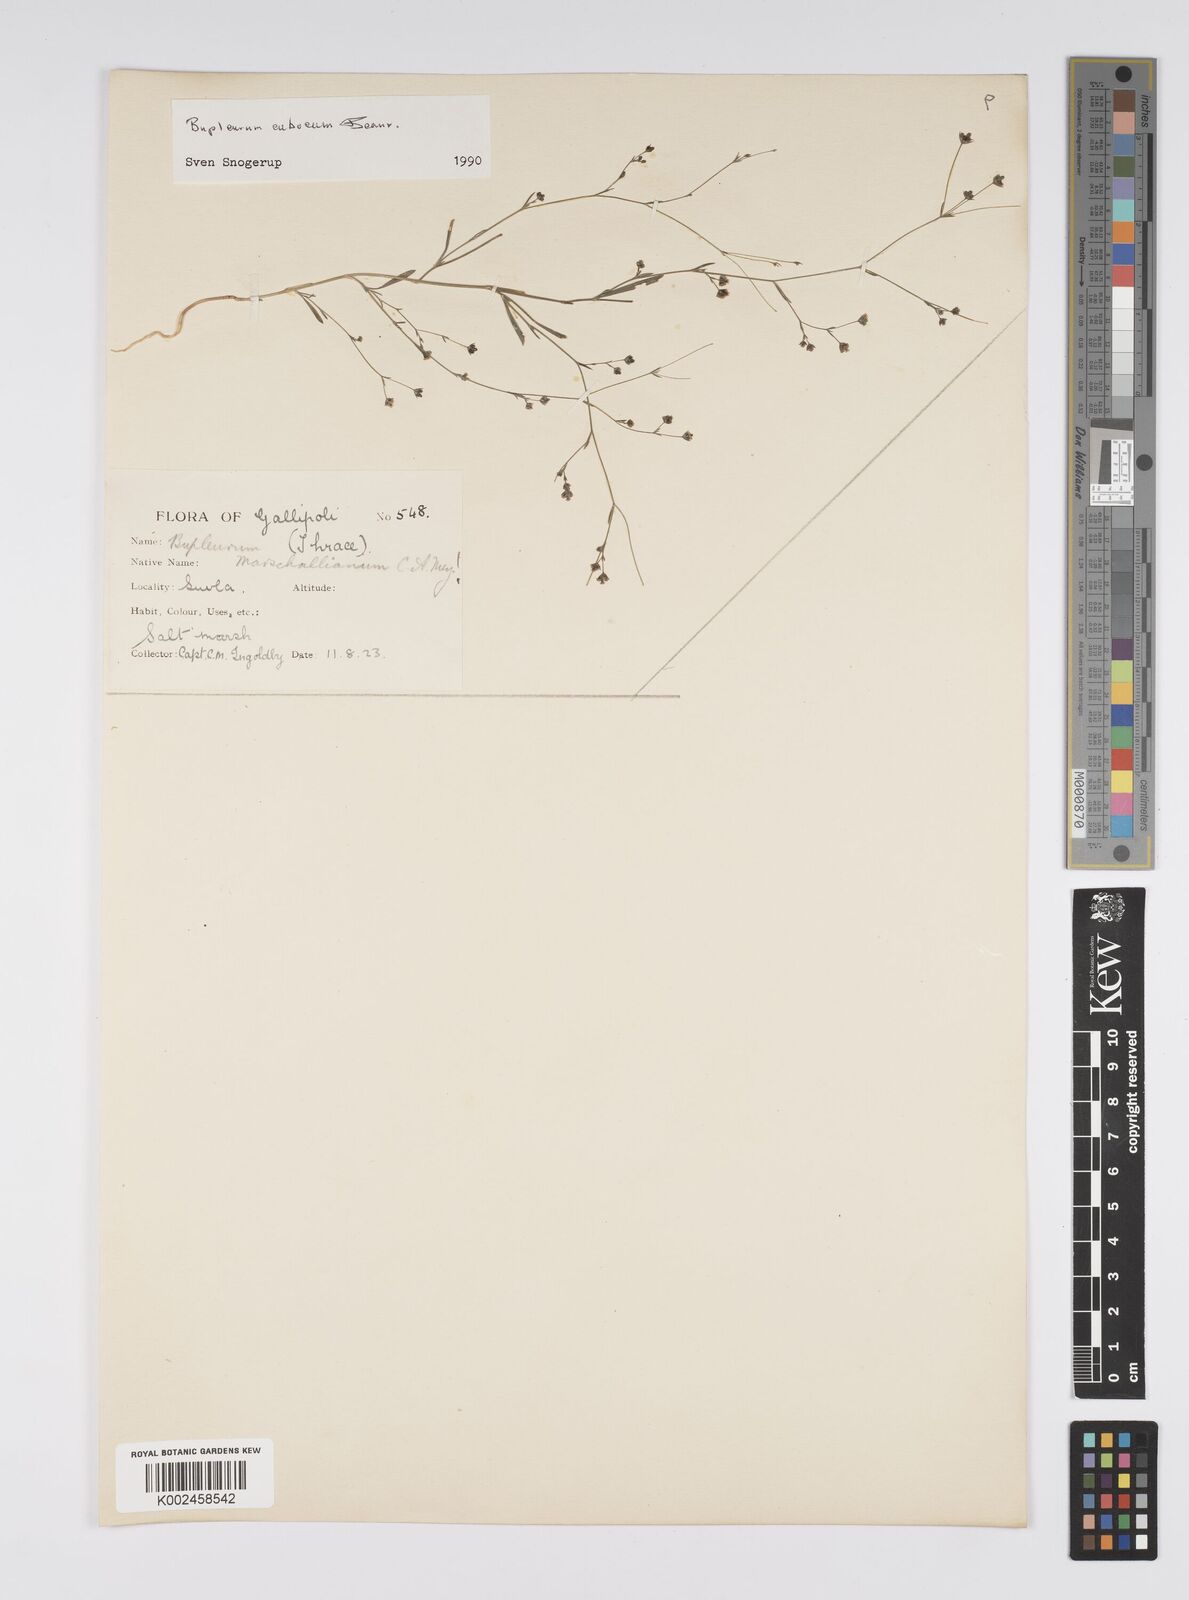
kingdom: Plantae
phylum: Tracheophyta
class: Magnoliopsida
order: Apiales
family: Apiaceae
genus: Bupleurum
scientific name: Bupleurum tenuissimum
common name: Slender hare's-ear
